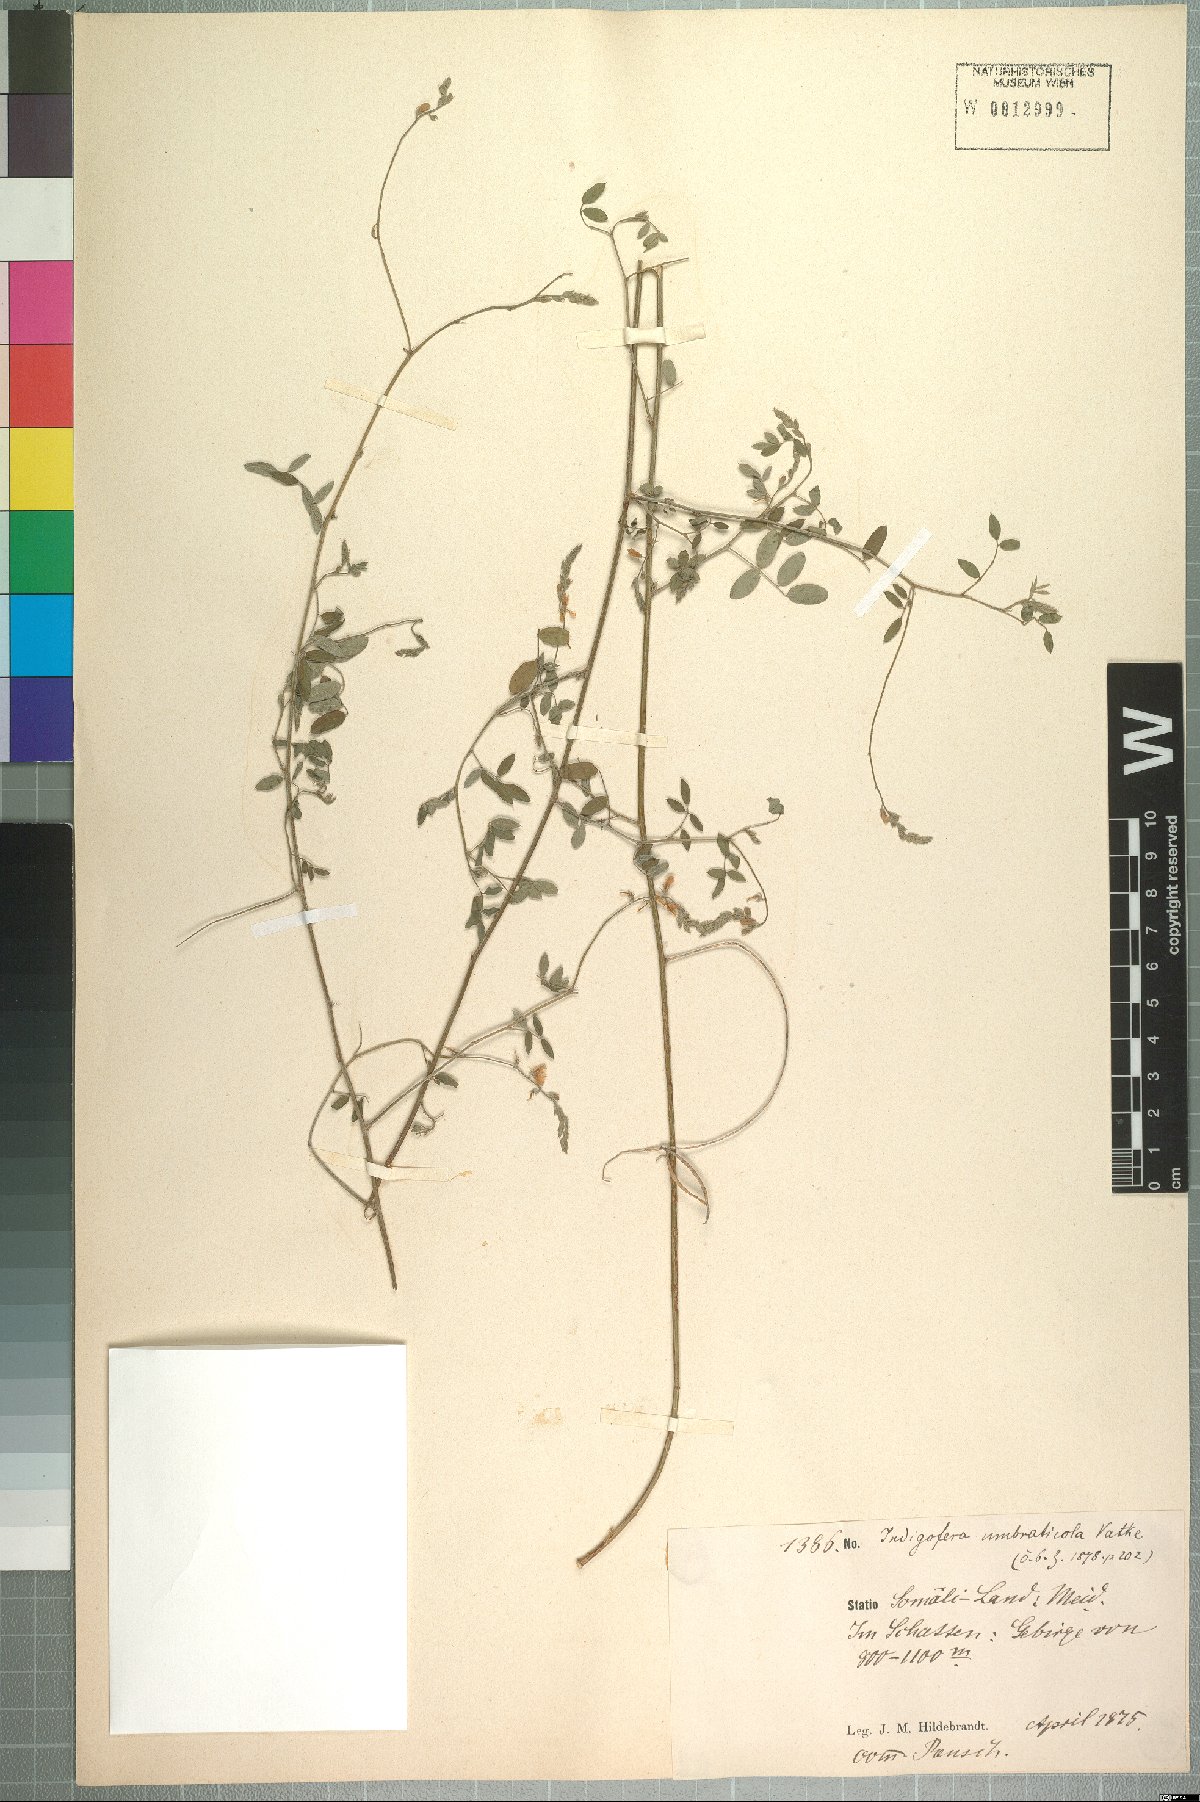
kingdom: Plantae
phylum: Tracheophyta
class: Magnoliopsida
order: Fabales
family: Fabaceae
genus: Indigofera
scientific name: Indigofera subulata
